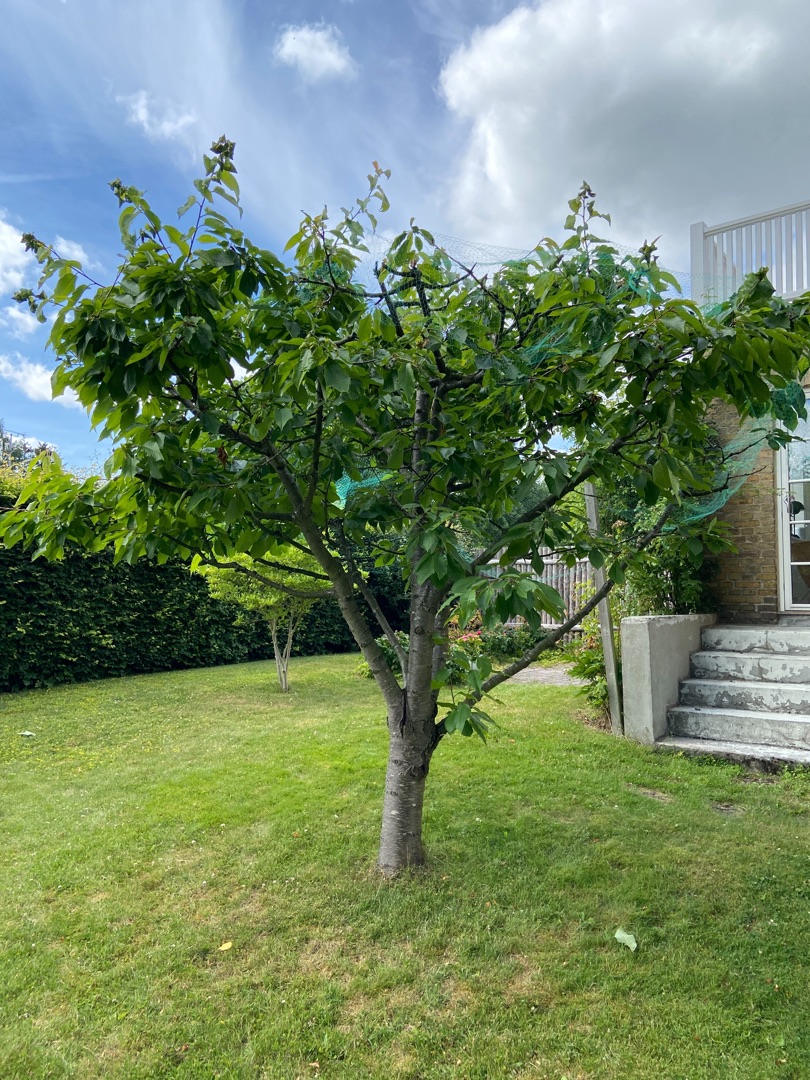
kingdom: Plantae
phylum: Tracheophyta
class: Magnoliopsida
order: Rosales
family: Rosaceae
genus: Prunus
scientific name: Prunus avium
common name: Fugle-kirsebær
